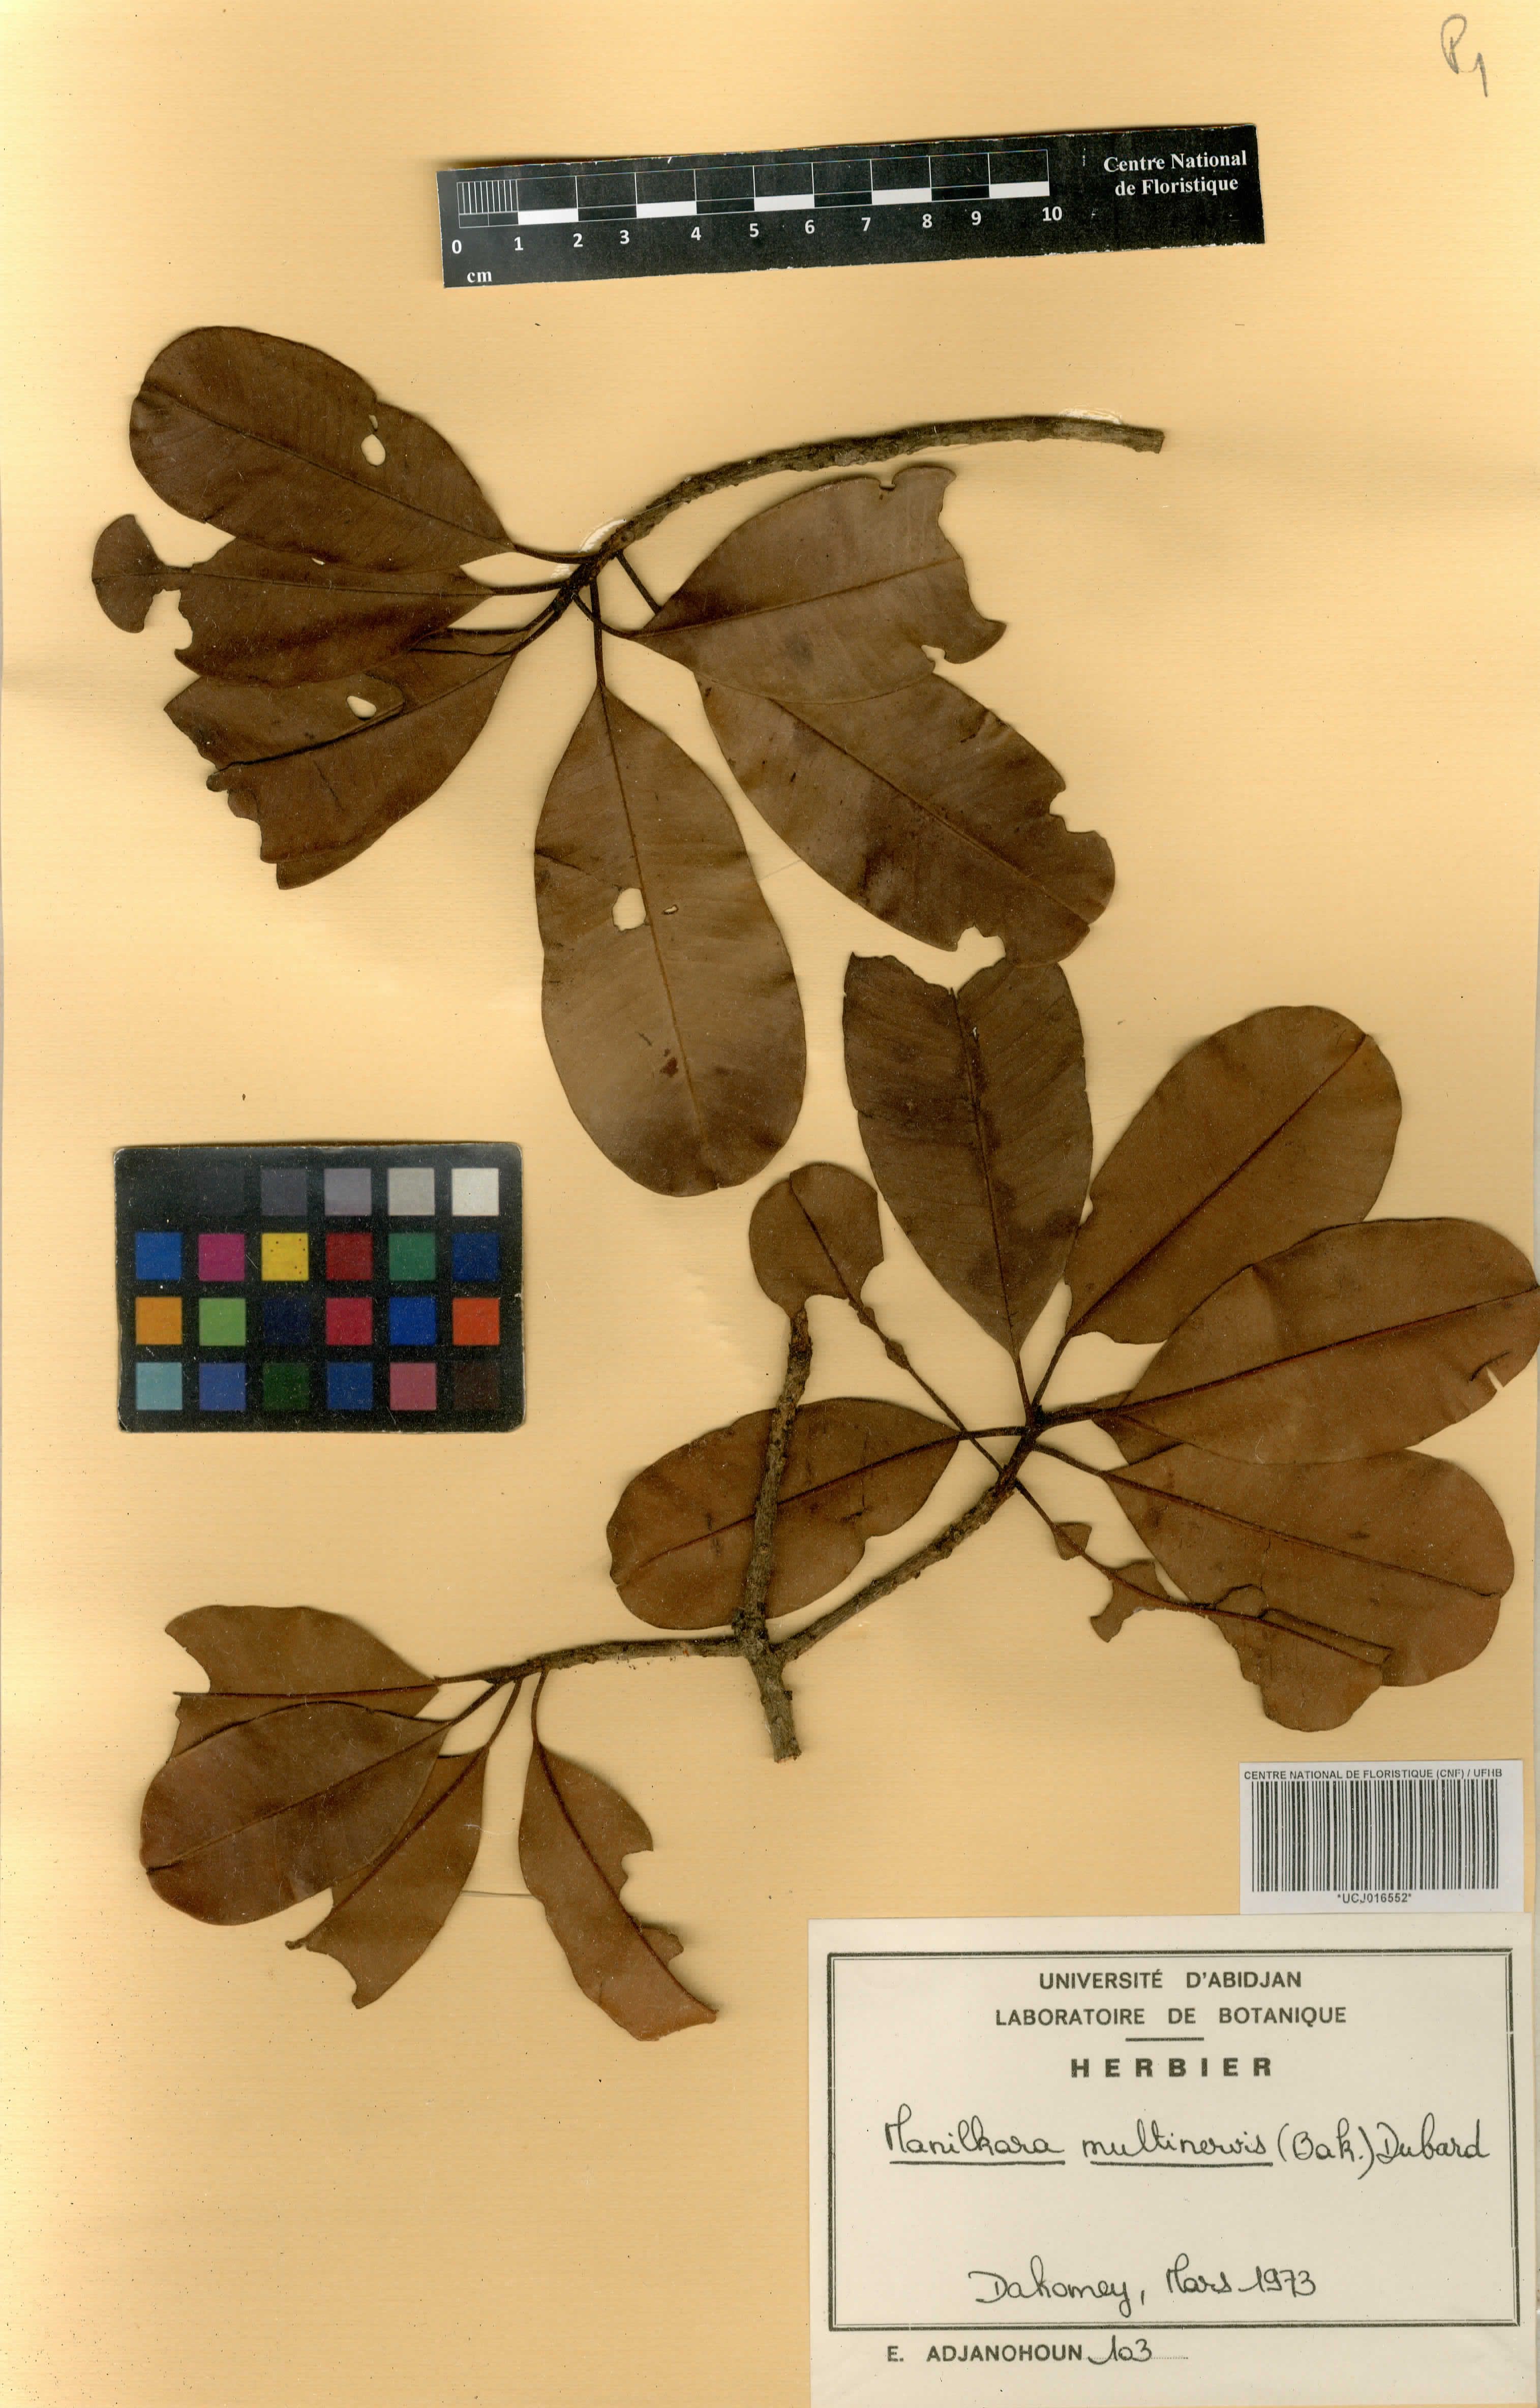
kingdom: Plantae
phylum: Tracheophyta
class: Magnoliopsida
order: Ericales
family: Sapotaceae
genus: Manilkara
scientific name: Manilkara obovata
